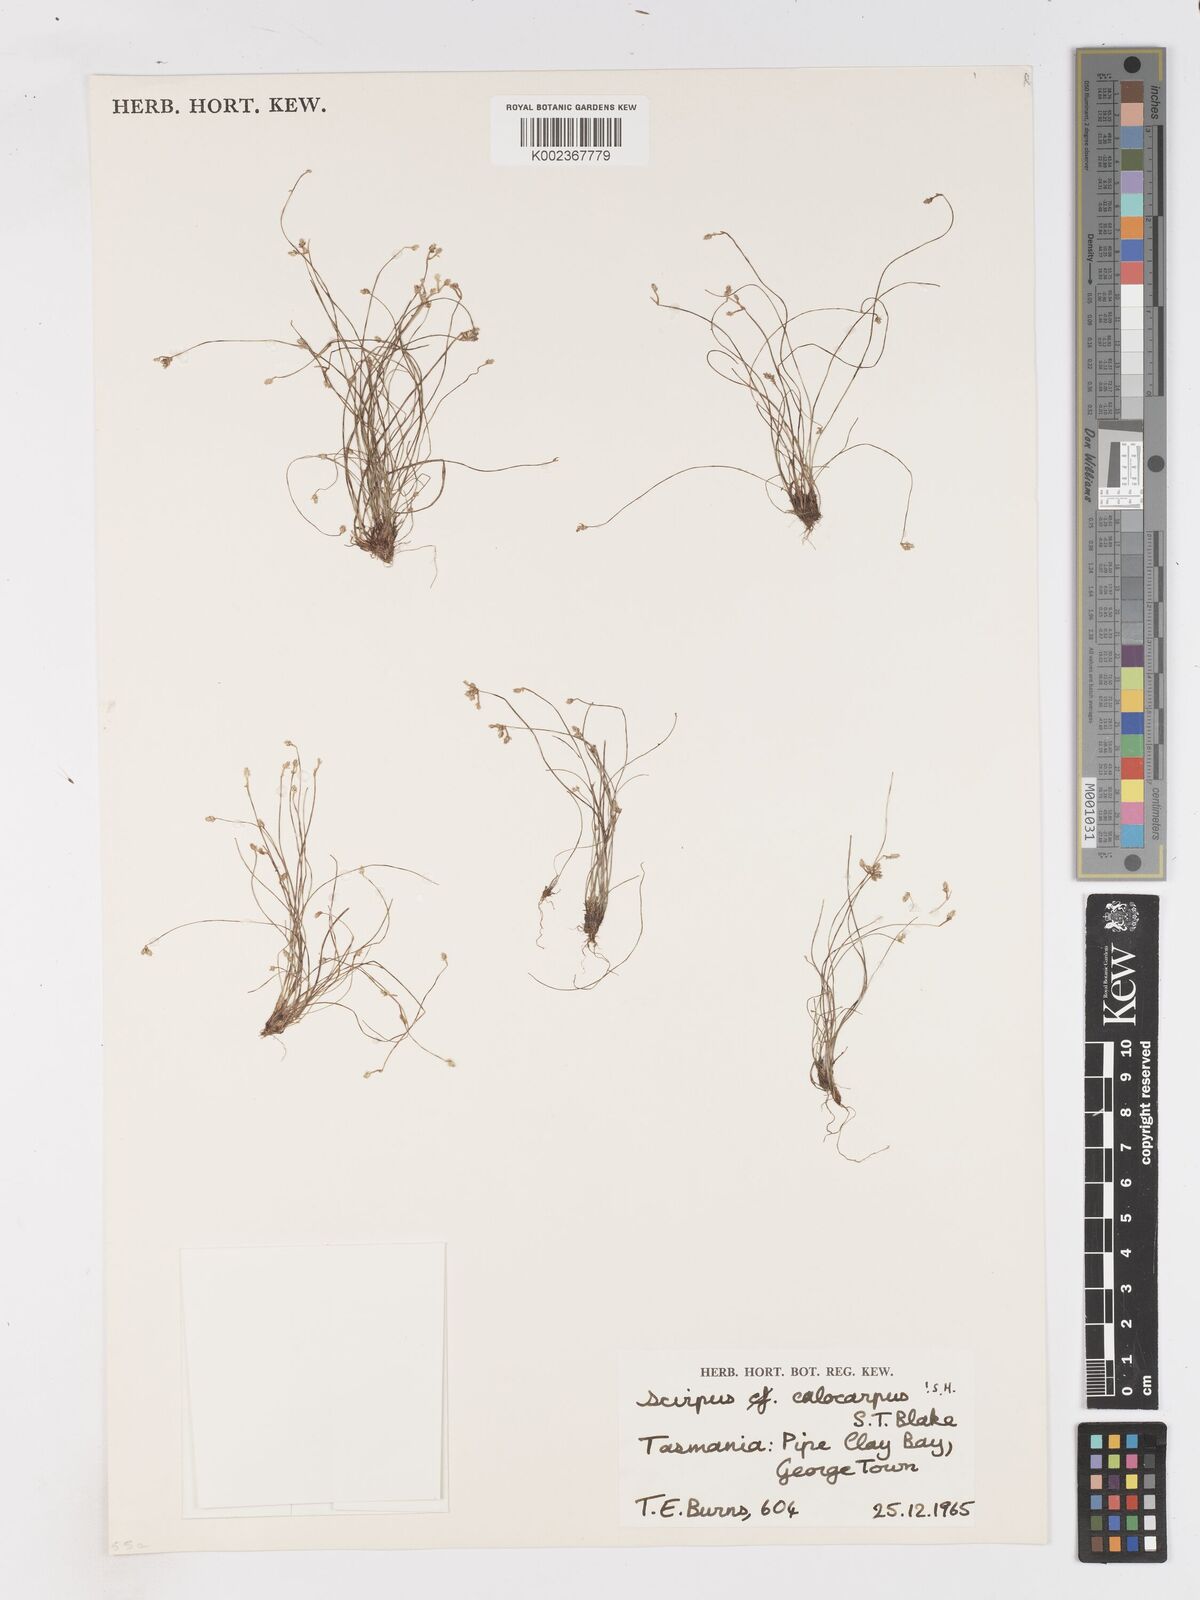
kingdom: Plantae
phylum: Tracheophyta
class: Liliopsida
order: Poales
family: Cyperaceae
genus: Isolepis
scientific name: Isolepis multicaulis
